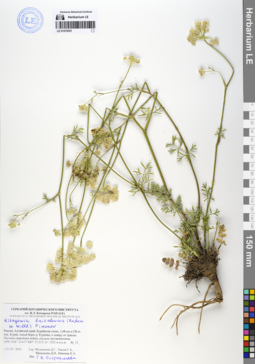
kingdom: Plantae
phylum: Tracheophyta
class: Magnoliopsida
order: Apiales
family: Apiaceae
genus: Kitagawia
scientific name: Kitagawia baicalensis
